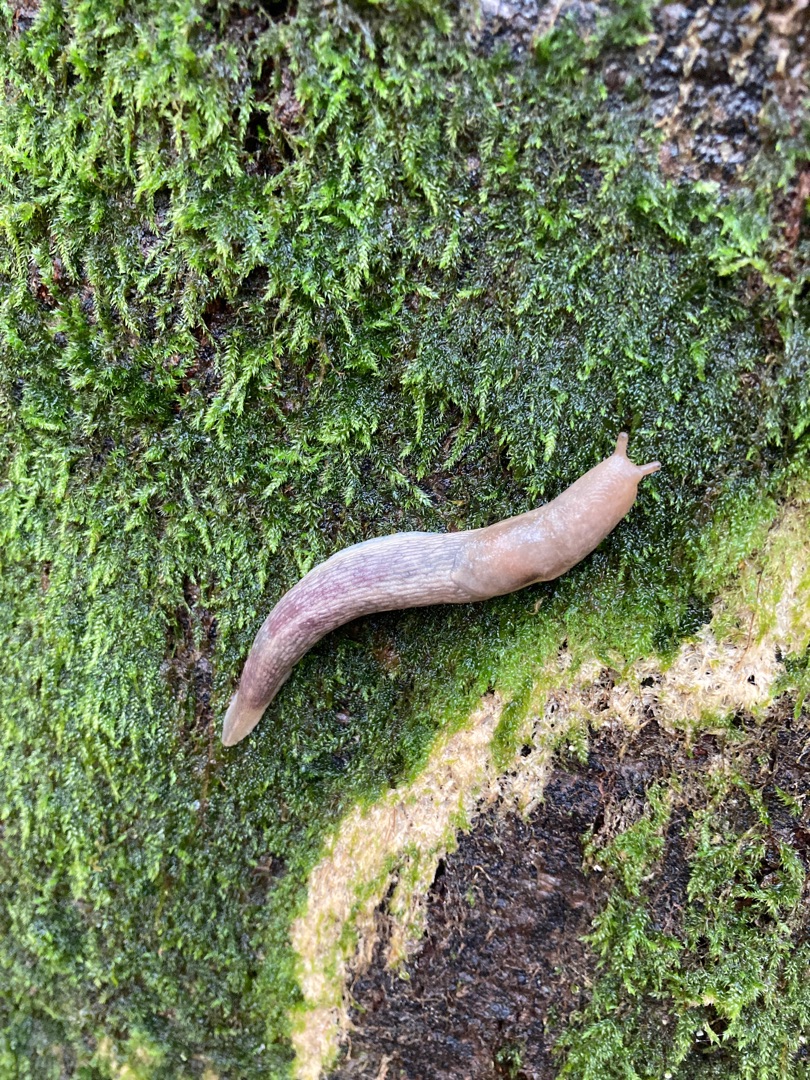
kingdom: Animalia
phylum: Mollusca
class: Gastropoda
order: Stylommatophora
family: Limacidae
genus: Lehmannia
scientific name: Lehmannia marginata
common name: Bøgesnegl
